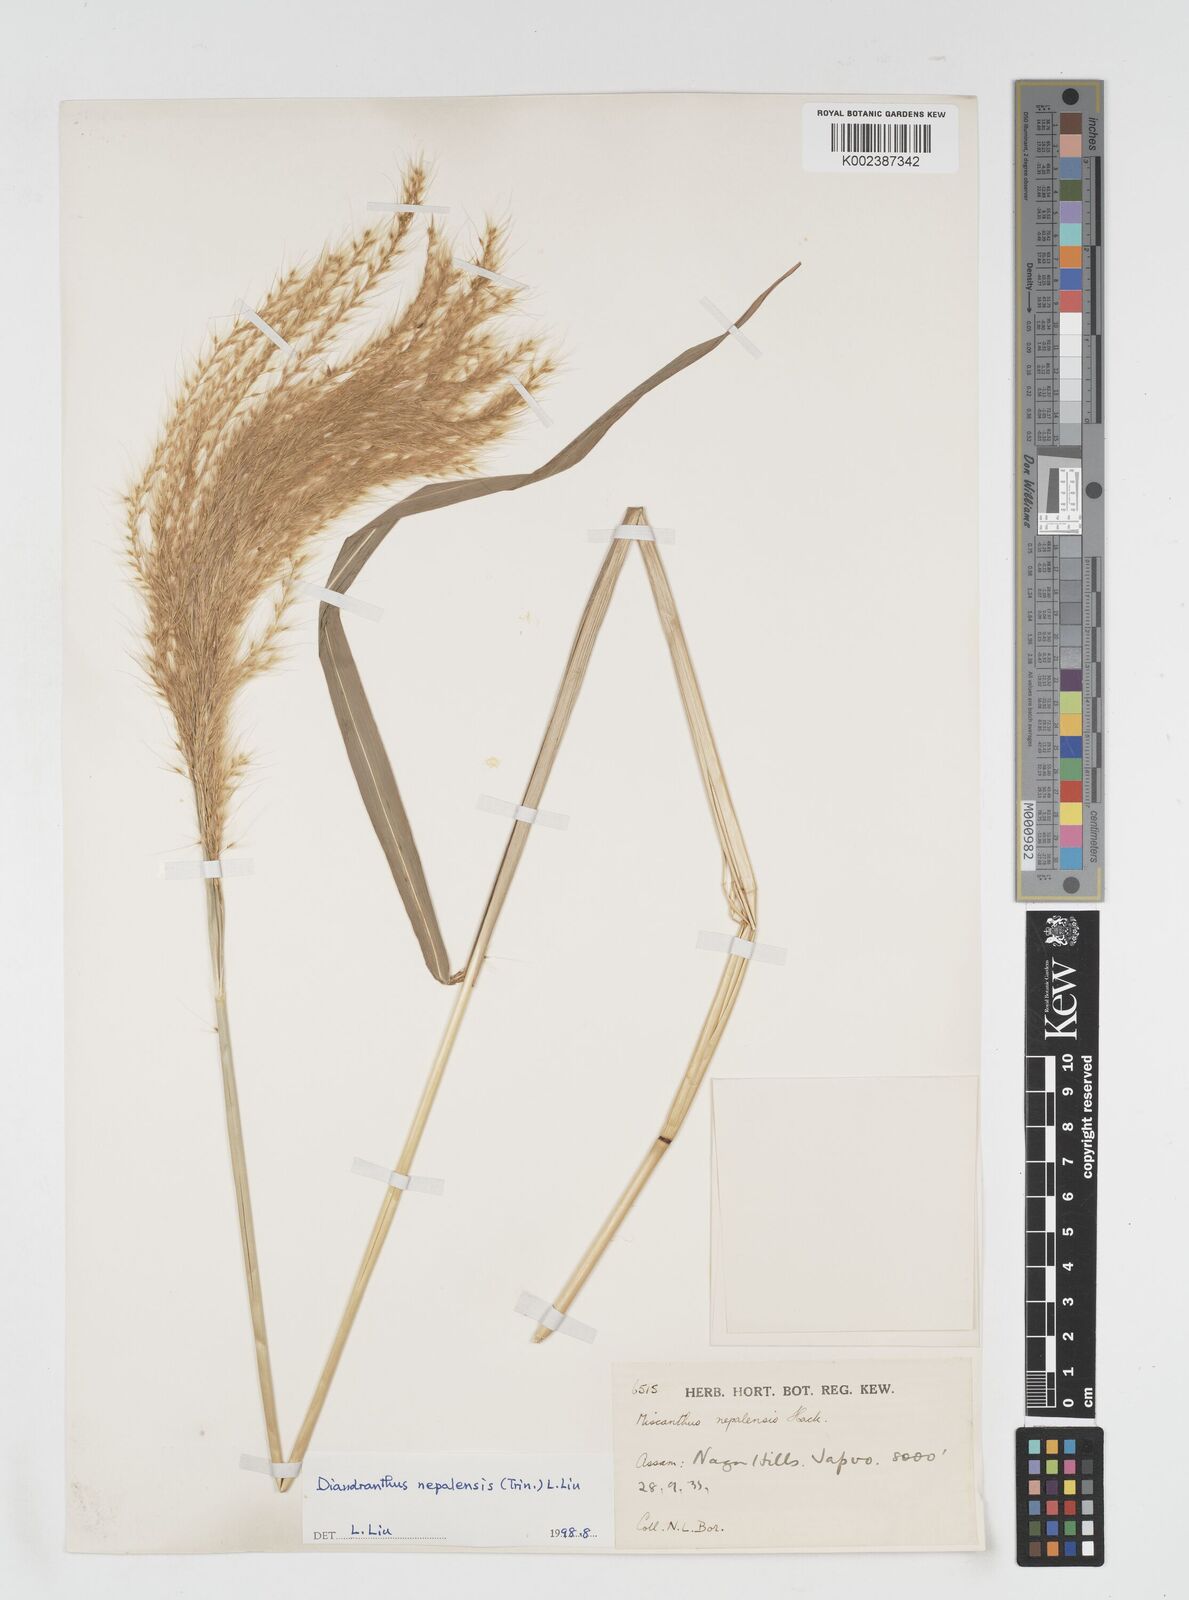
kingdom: Plantae
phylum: Tracheophyta
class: Liliopsida
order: Poales
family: Poaceae
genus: Miscanthus
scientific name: Miscanthus nepalensis
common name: Nepal silver grass
